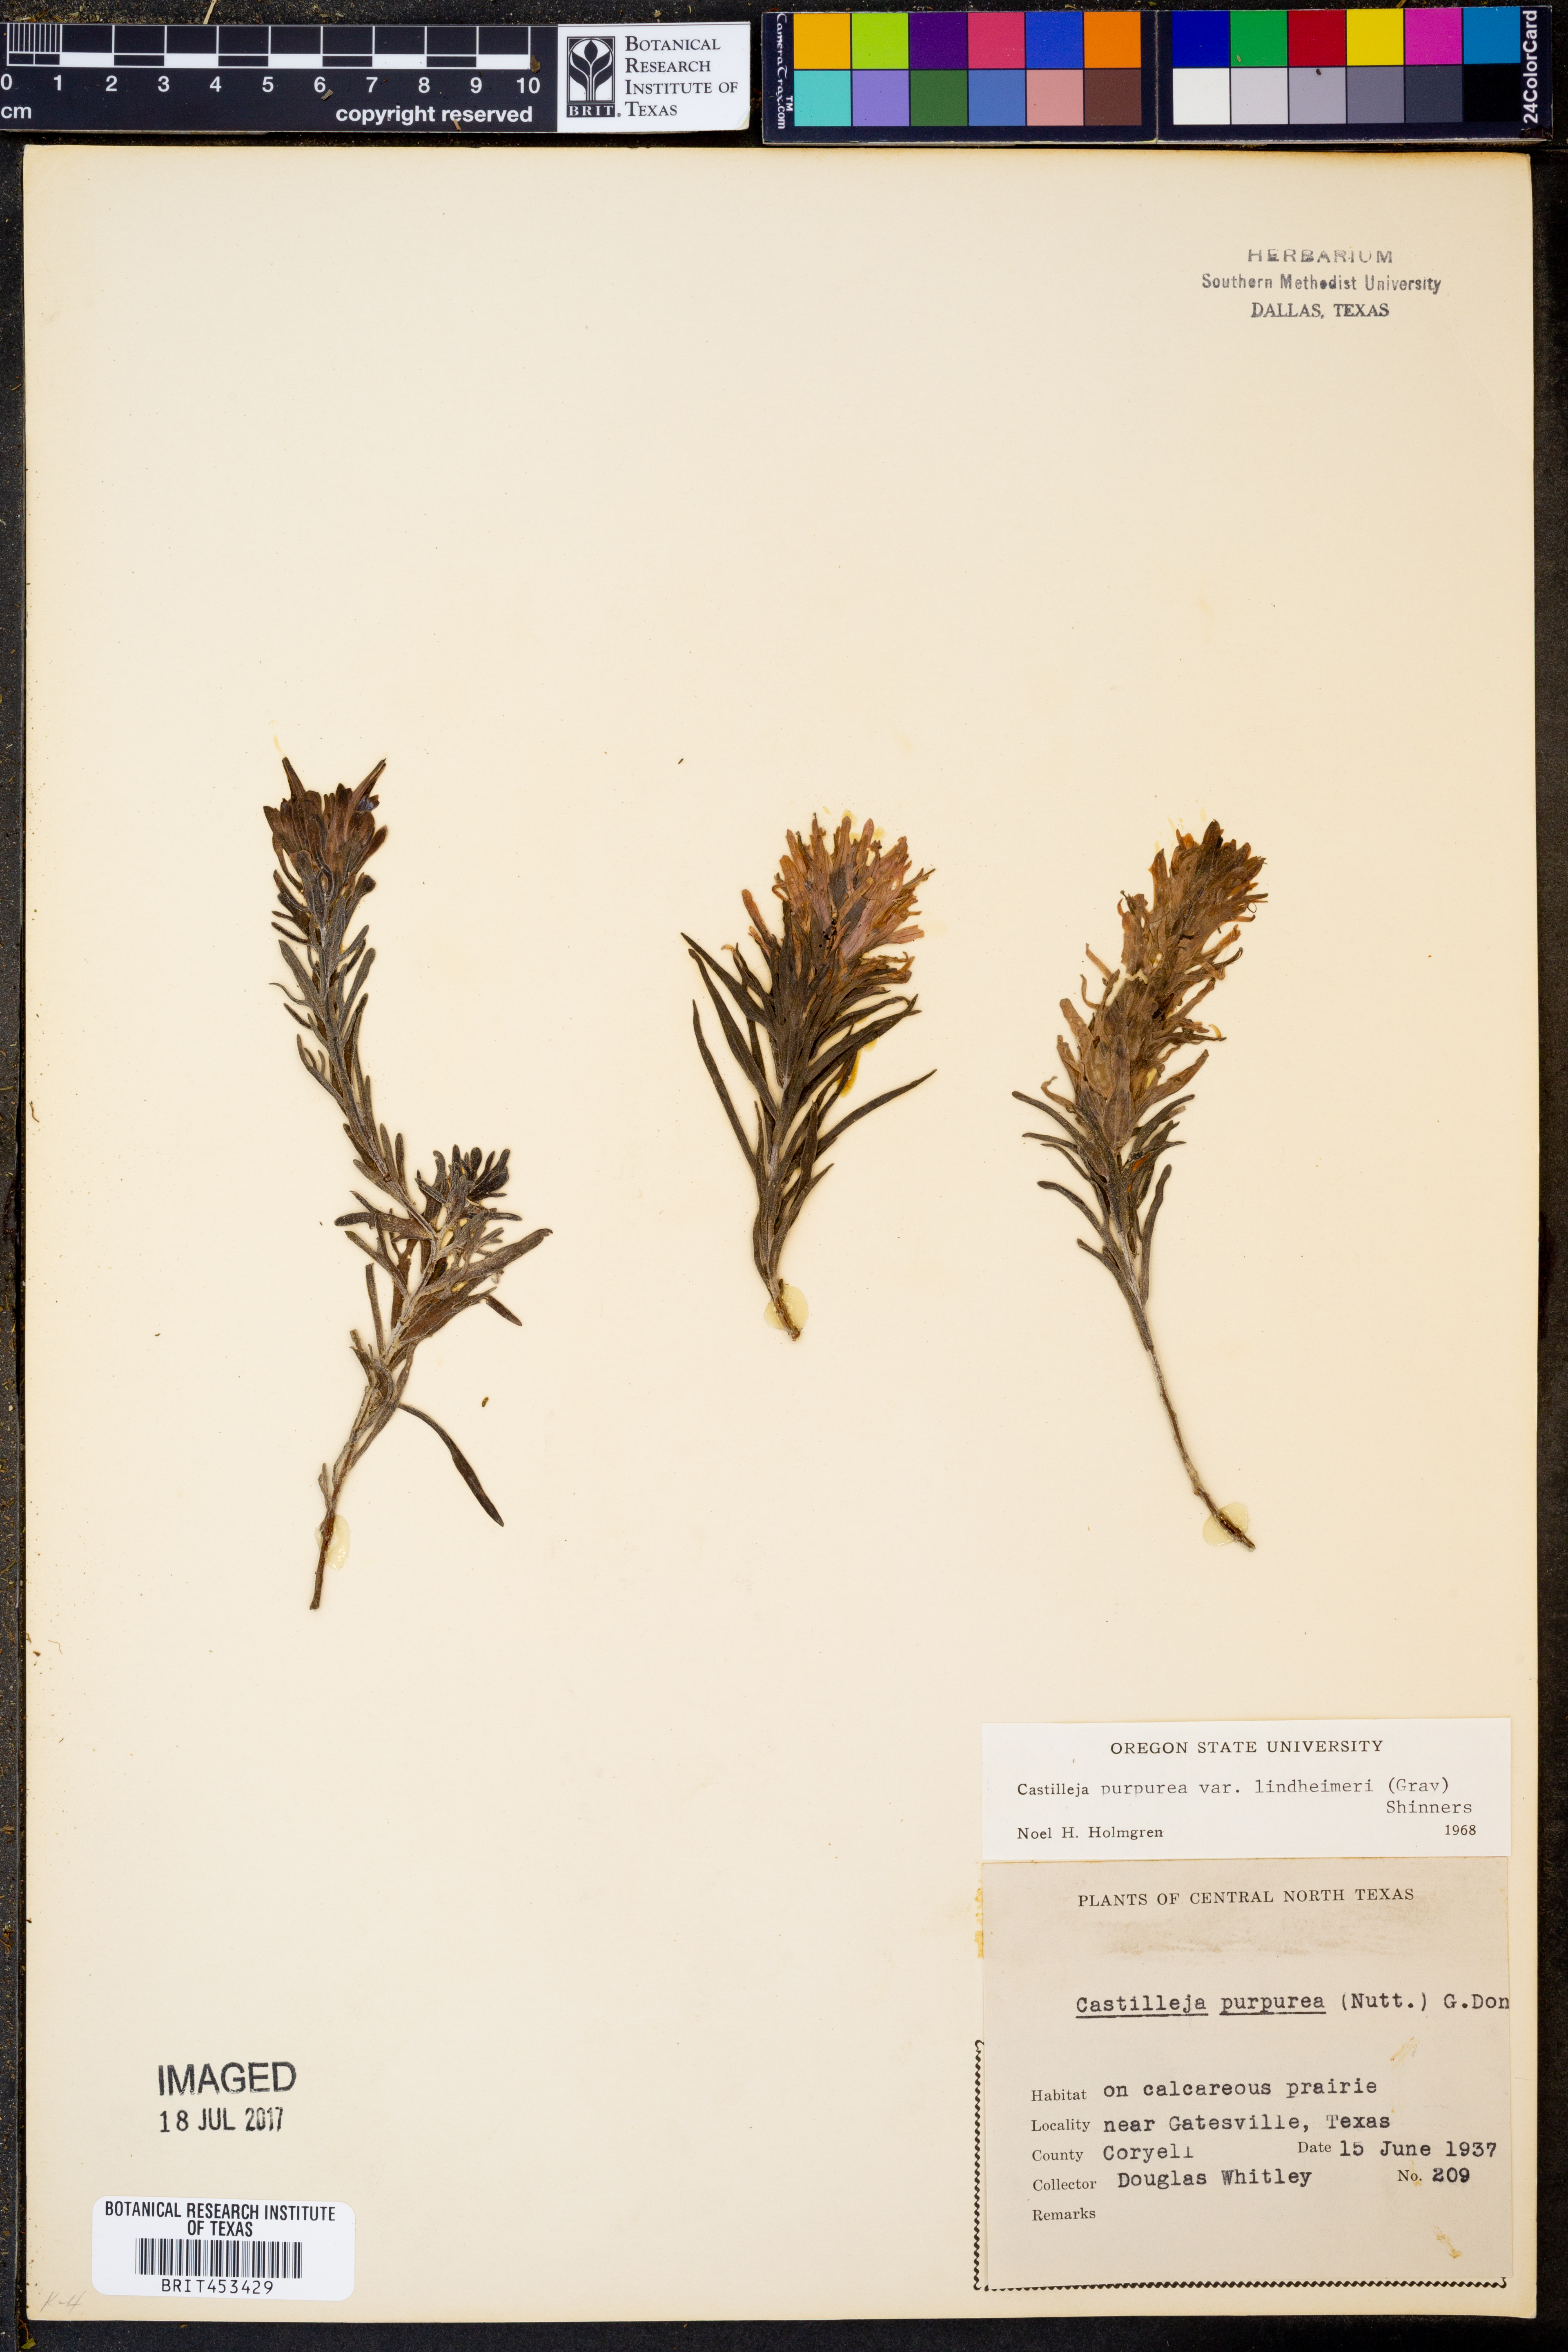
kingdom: Plantae
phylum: Tracheophyta
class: Magnoliopsida
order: Lamiales
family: Orobanchaceae
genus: Castilleja
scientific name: Castilleja purpurea
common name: Plains paintbrush
